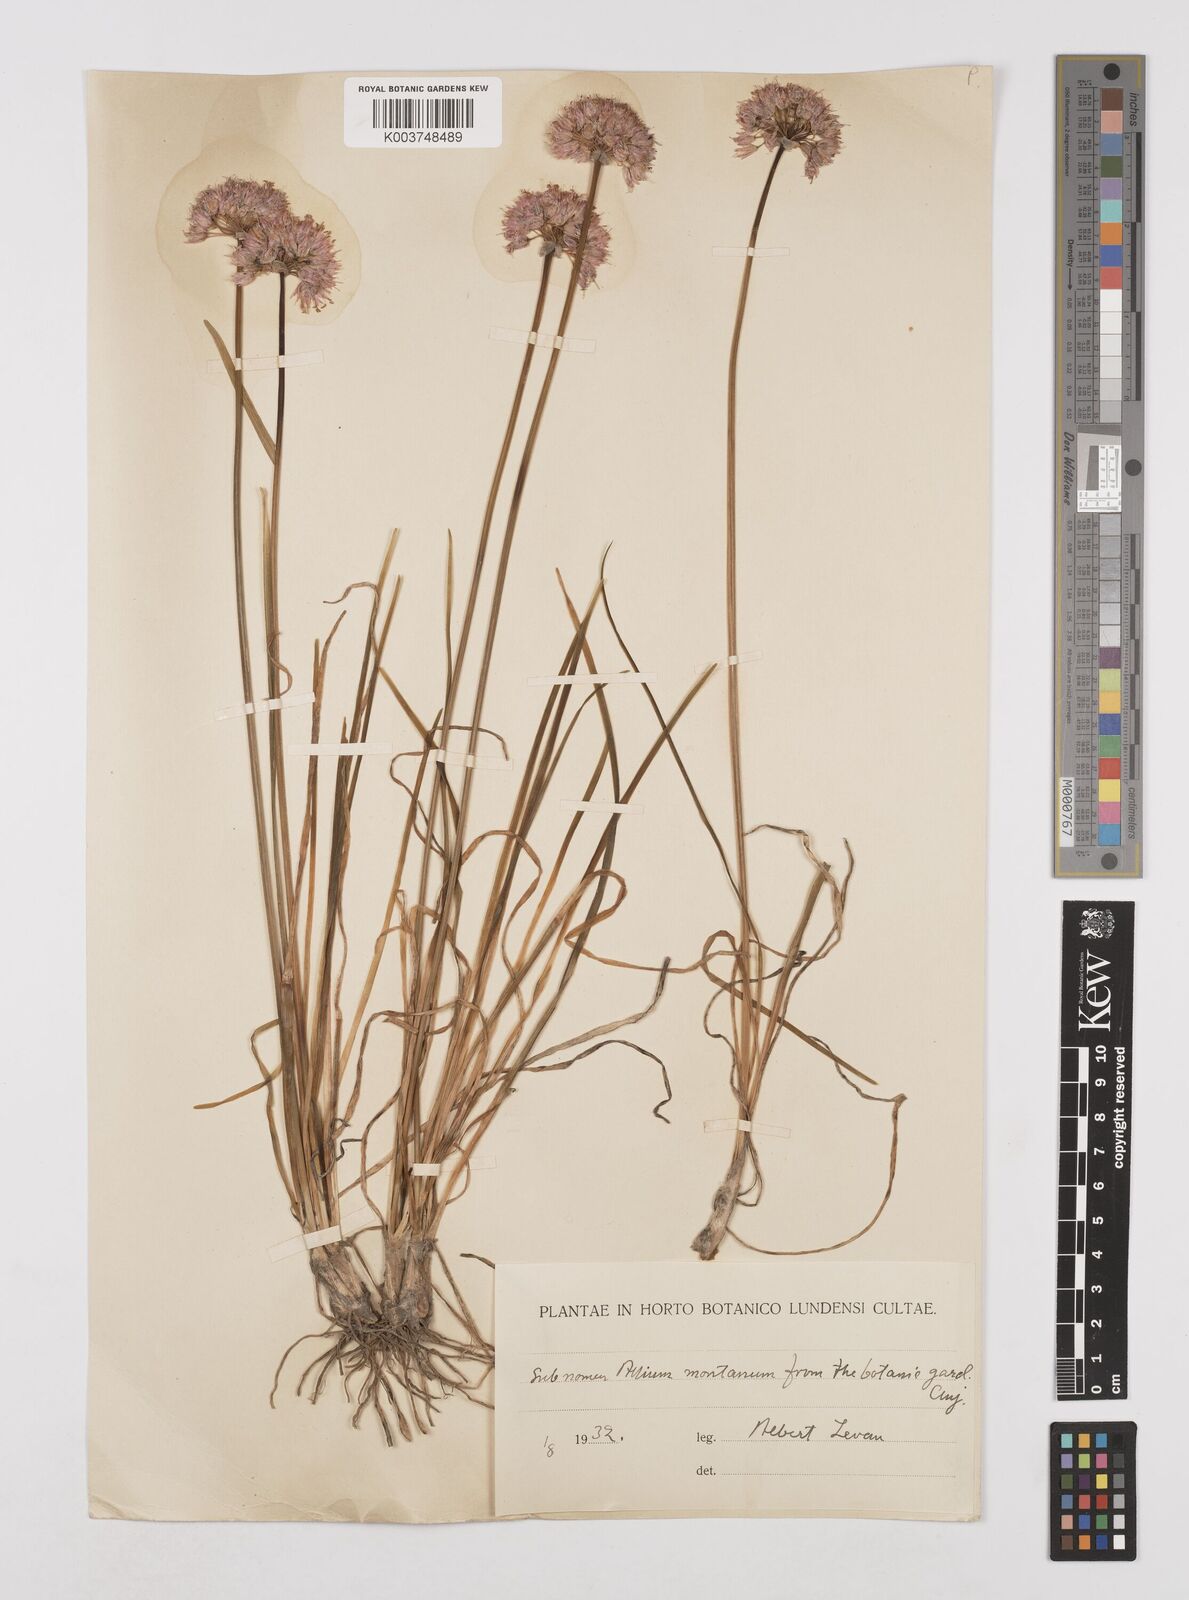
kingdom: Plantae
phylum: Tracheophyta
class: Liliopsida
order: Asparagales
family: Amaryllidaceae
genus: Allium
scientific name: Allium
